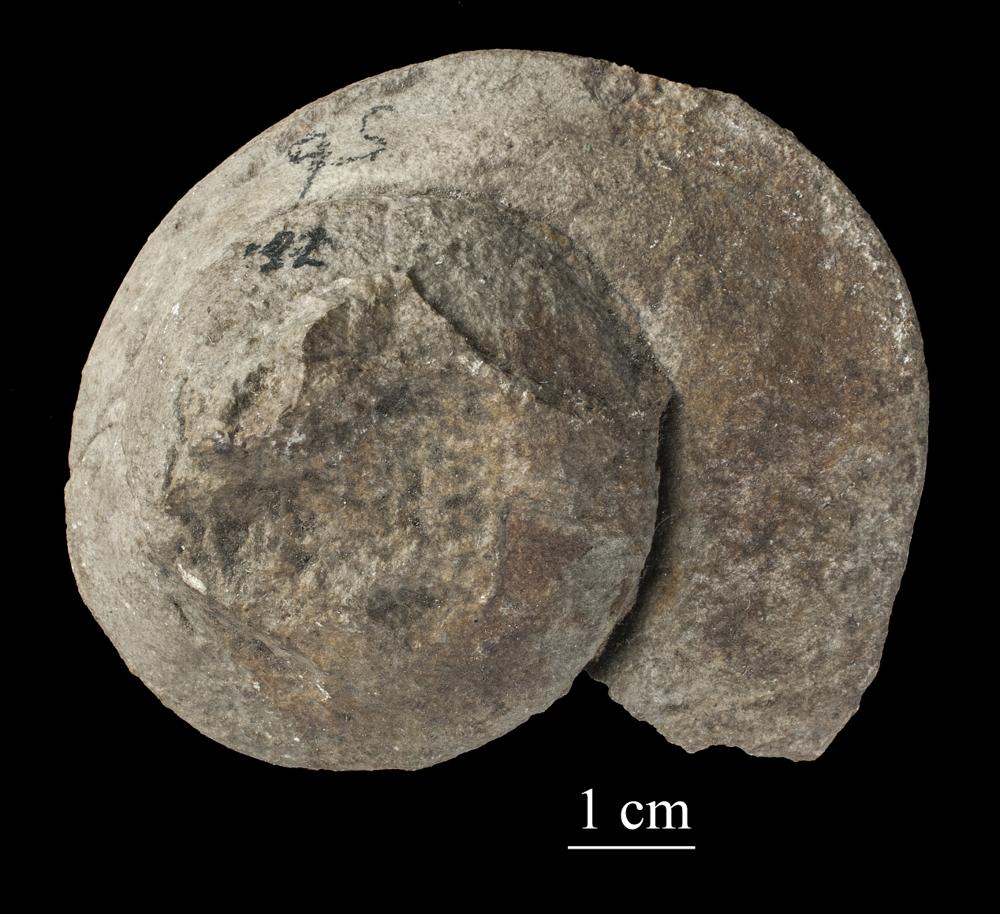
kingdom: Animalia
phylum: Mollusca
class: Gastropoda
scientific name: Gastropoda
